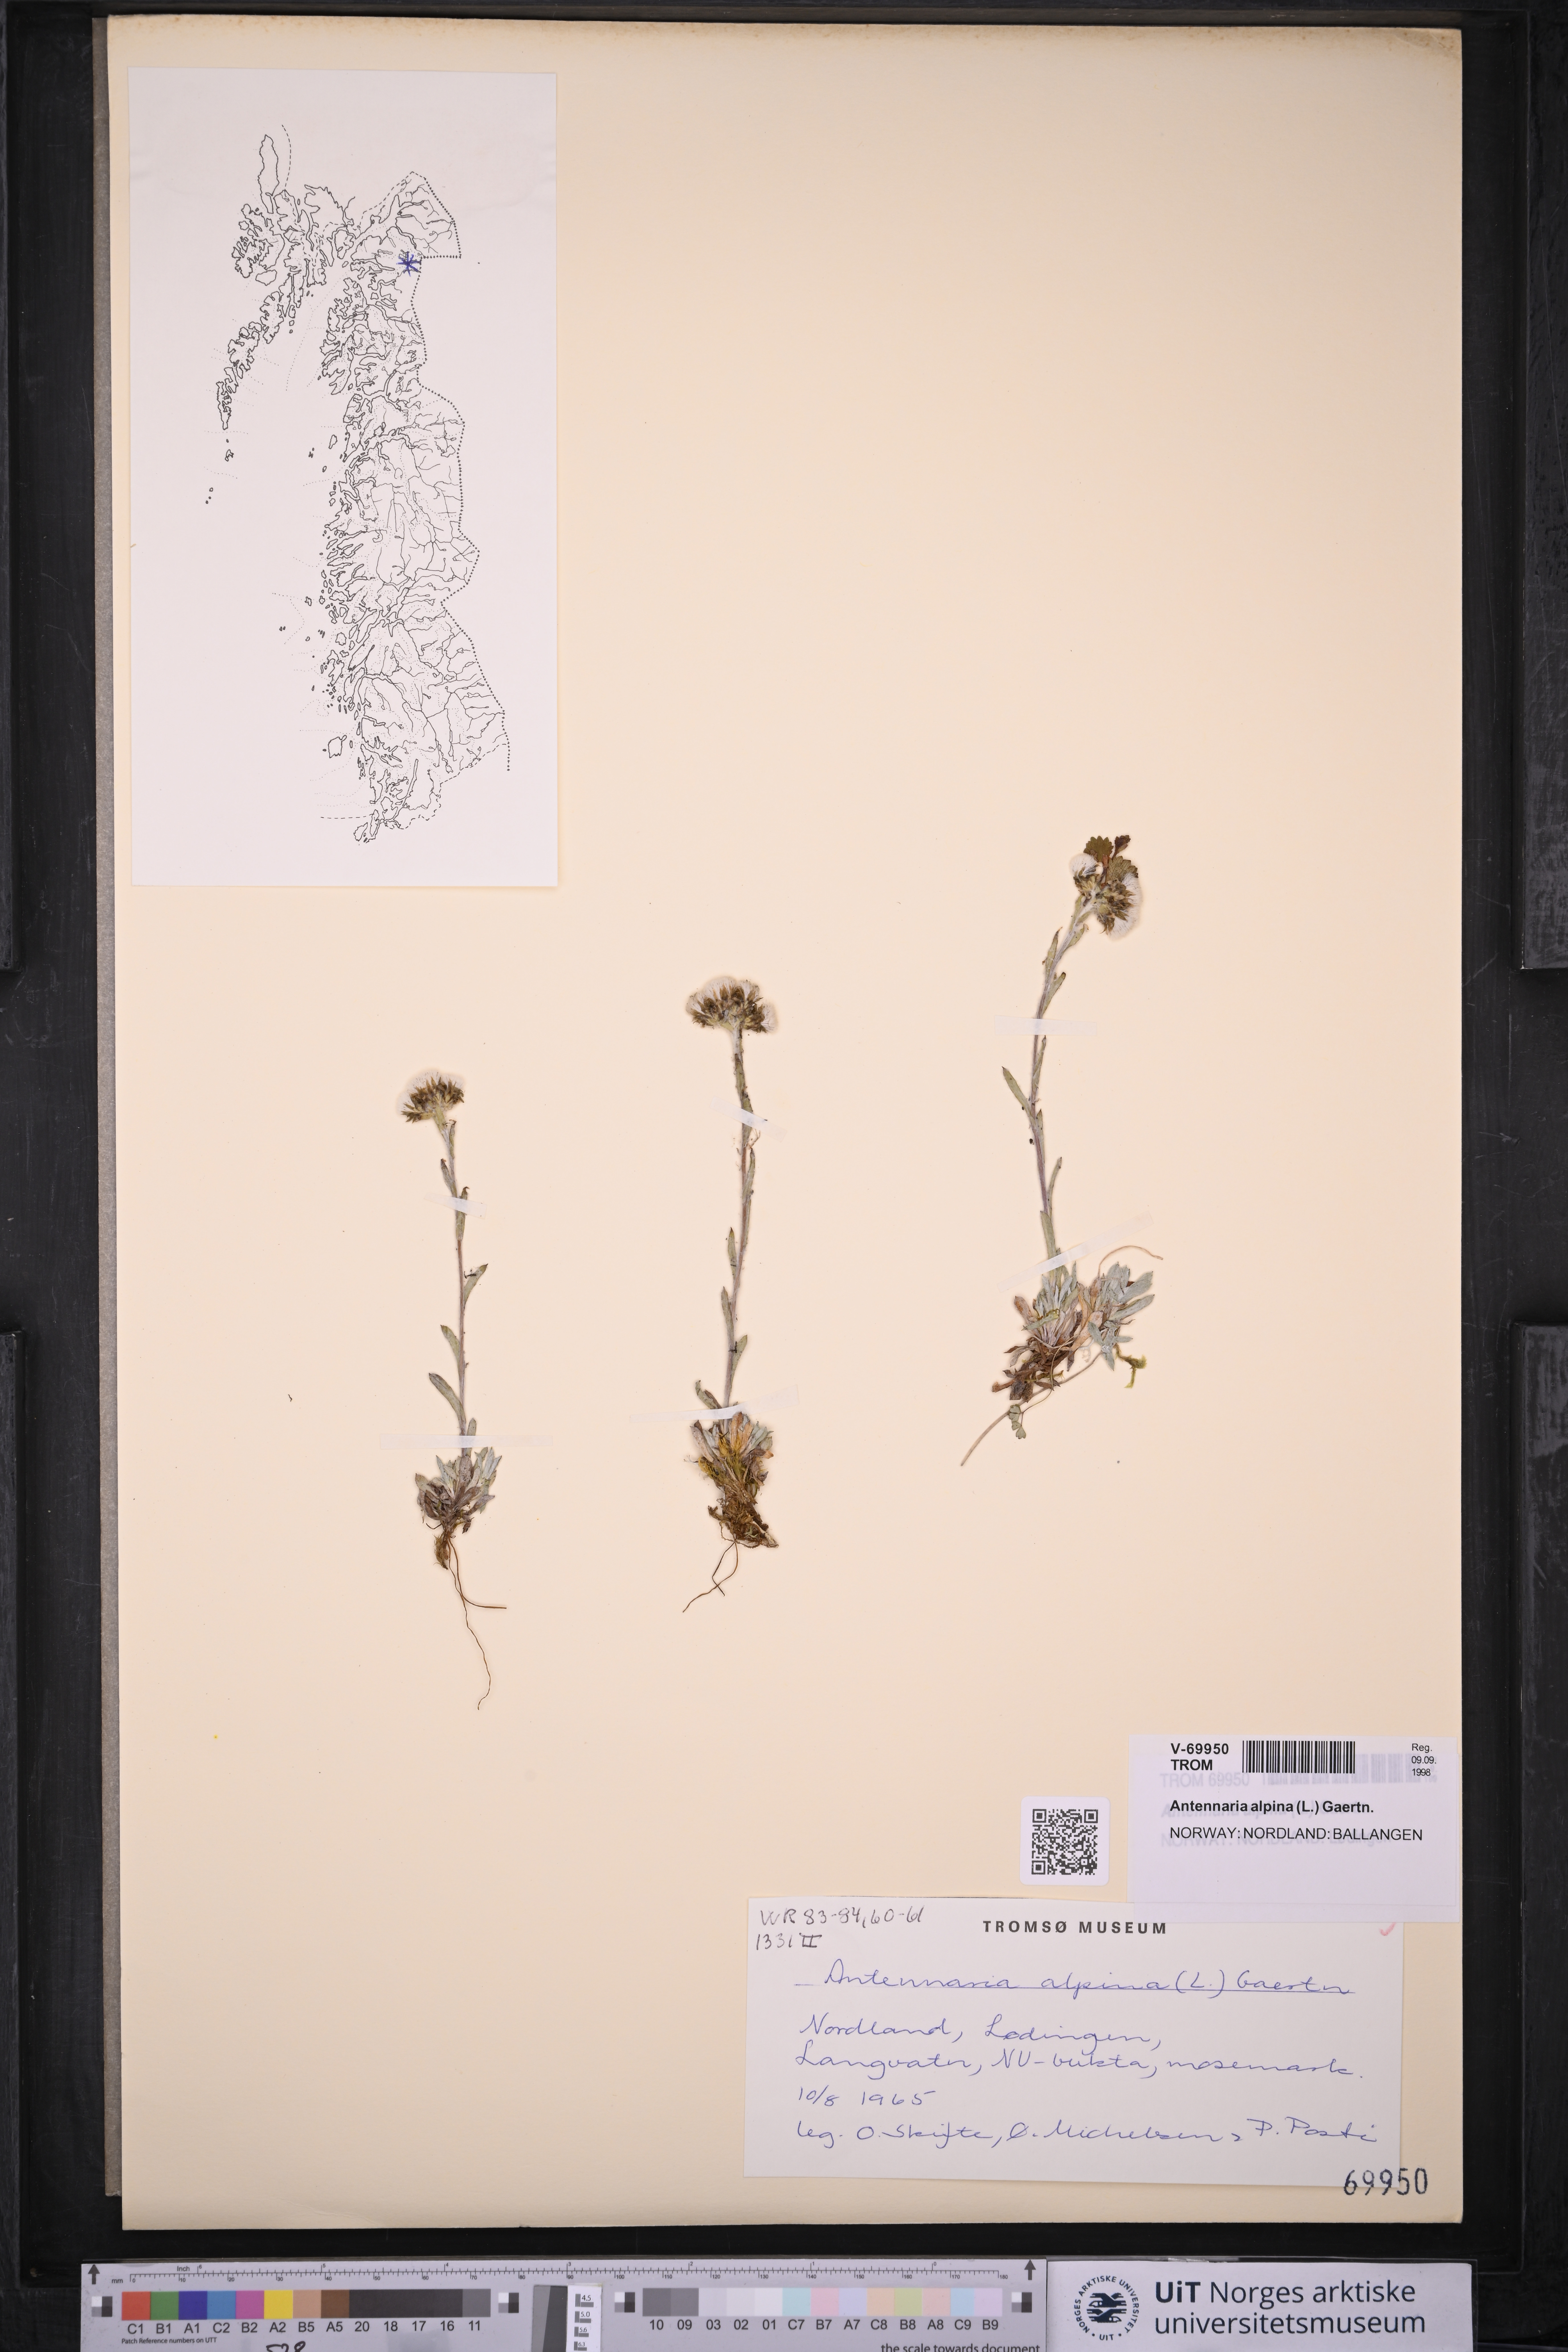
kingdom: Plantae
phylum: Tracheophyta
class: Magnoliopsida
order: Asterales
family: Asteraceae
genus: Antennaria
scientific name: Antennaria alpina
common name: Alpine pussytoes
